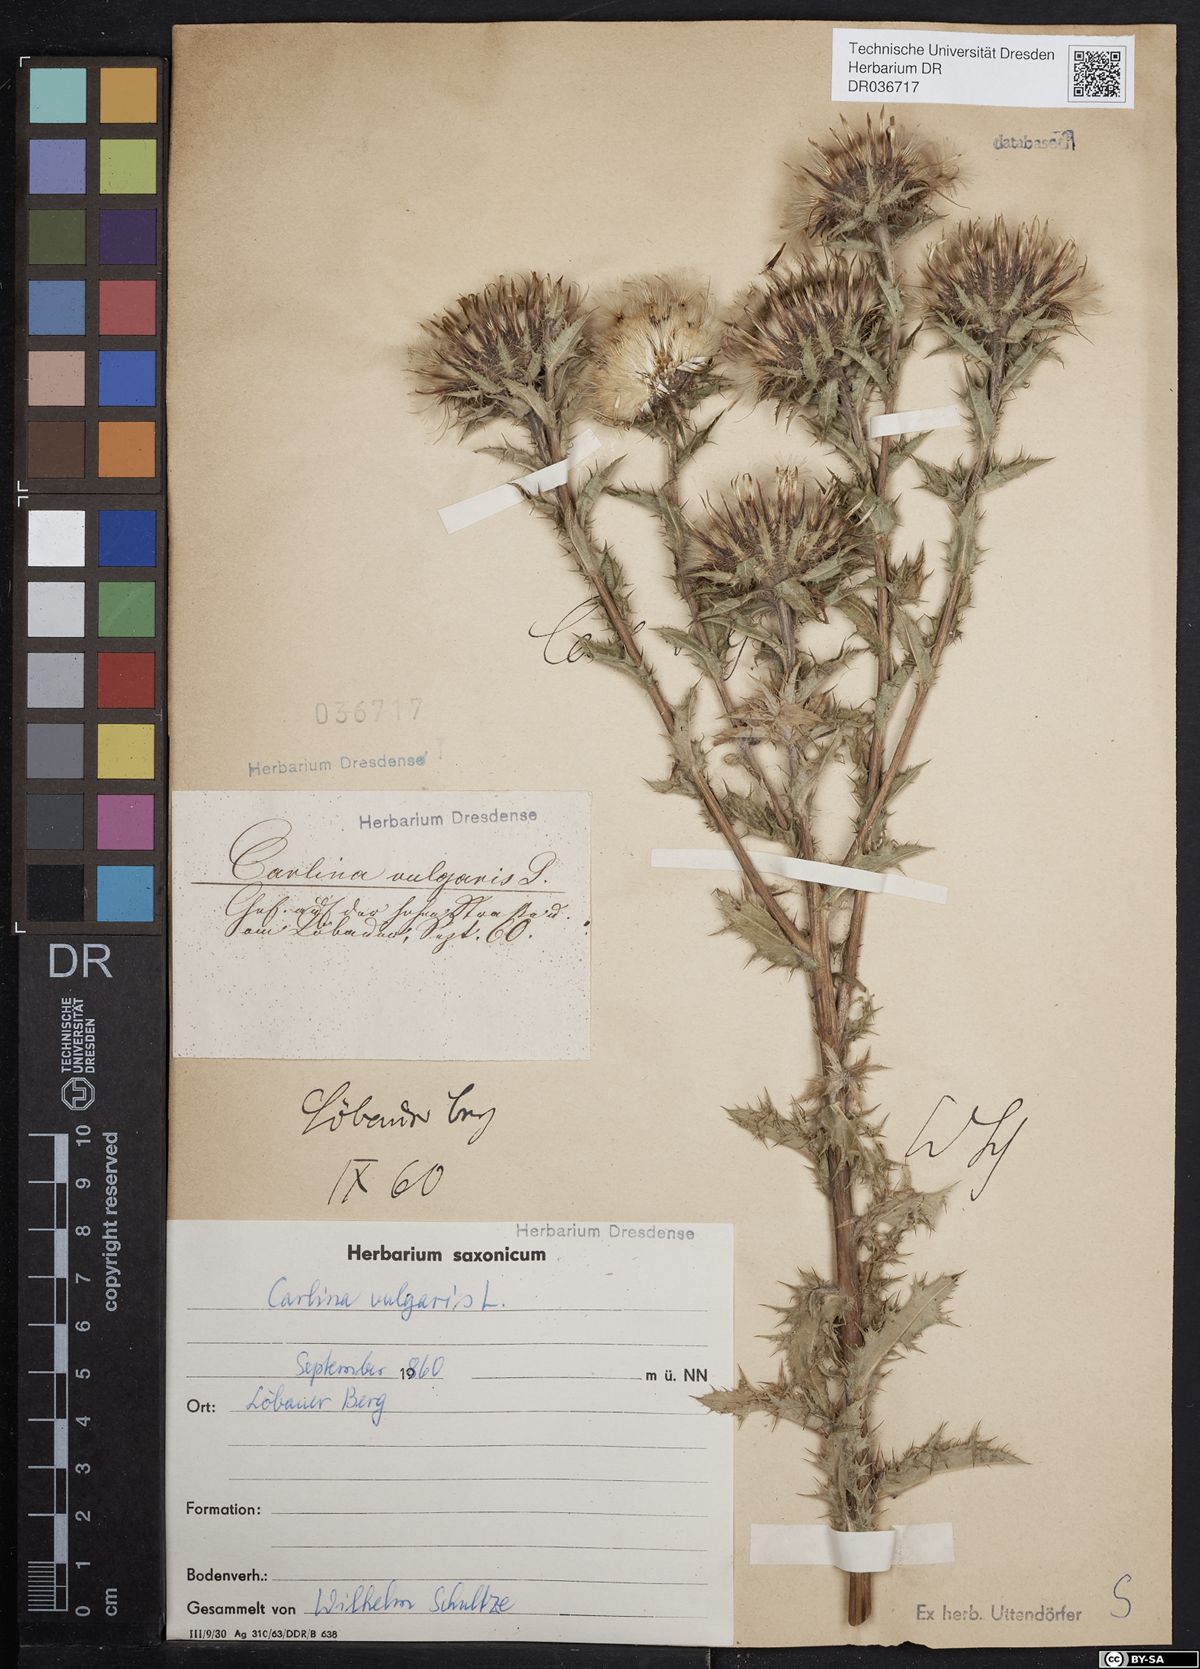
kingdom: Plantae
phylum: Tracheophyta
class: Magnoliopsida
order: Asterales
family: Asteraceae
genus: Carlina
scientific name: Carlina vulgaris
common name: Carline thistle
